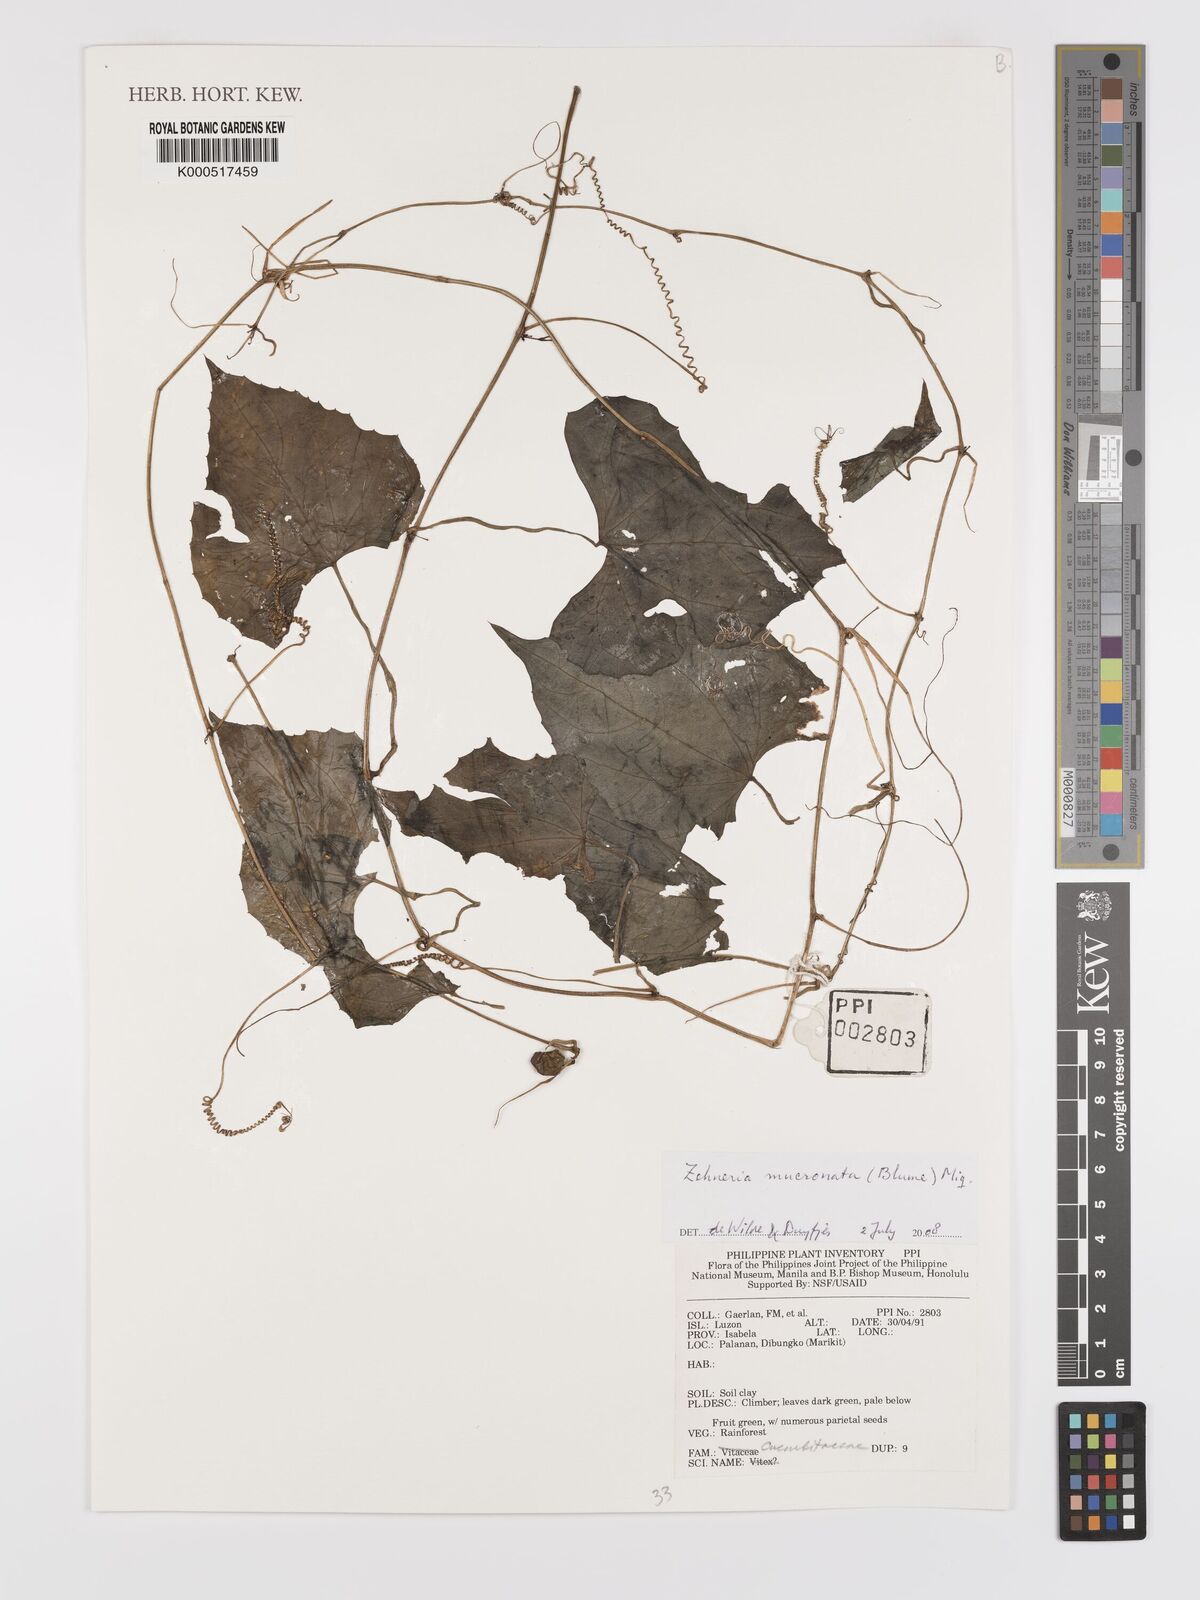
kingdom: Plantae
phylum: Tracheophyta
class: Magnoliopsida
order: Cucurbitales
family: Cucurbitaceae
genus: Zehneria
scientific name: Zehneria mucronata
